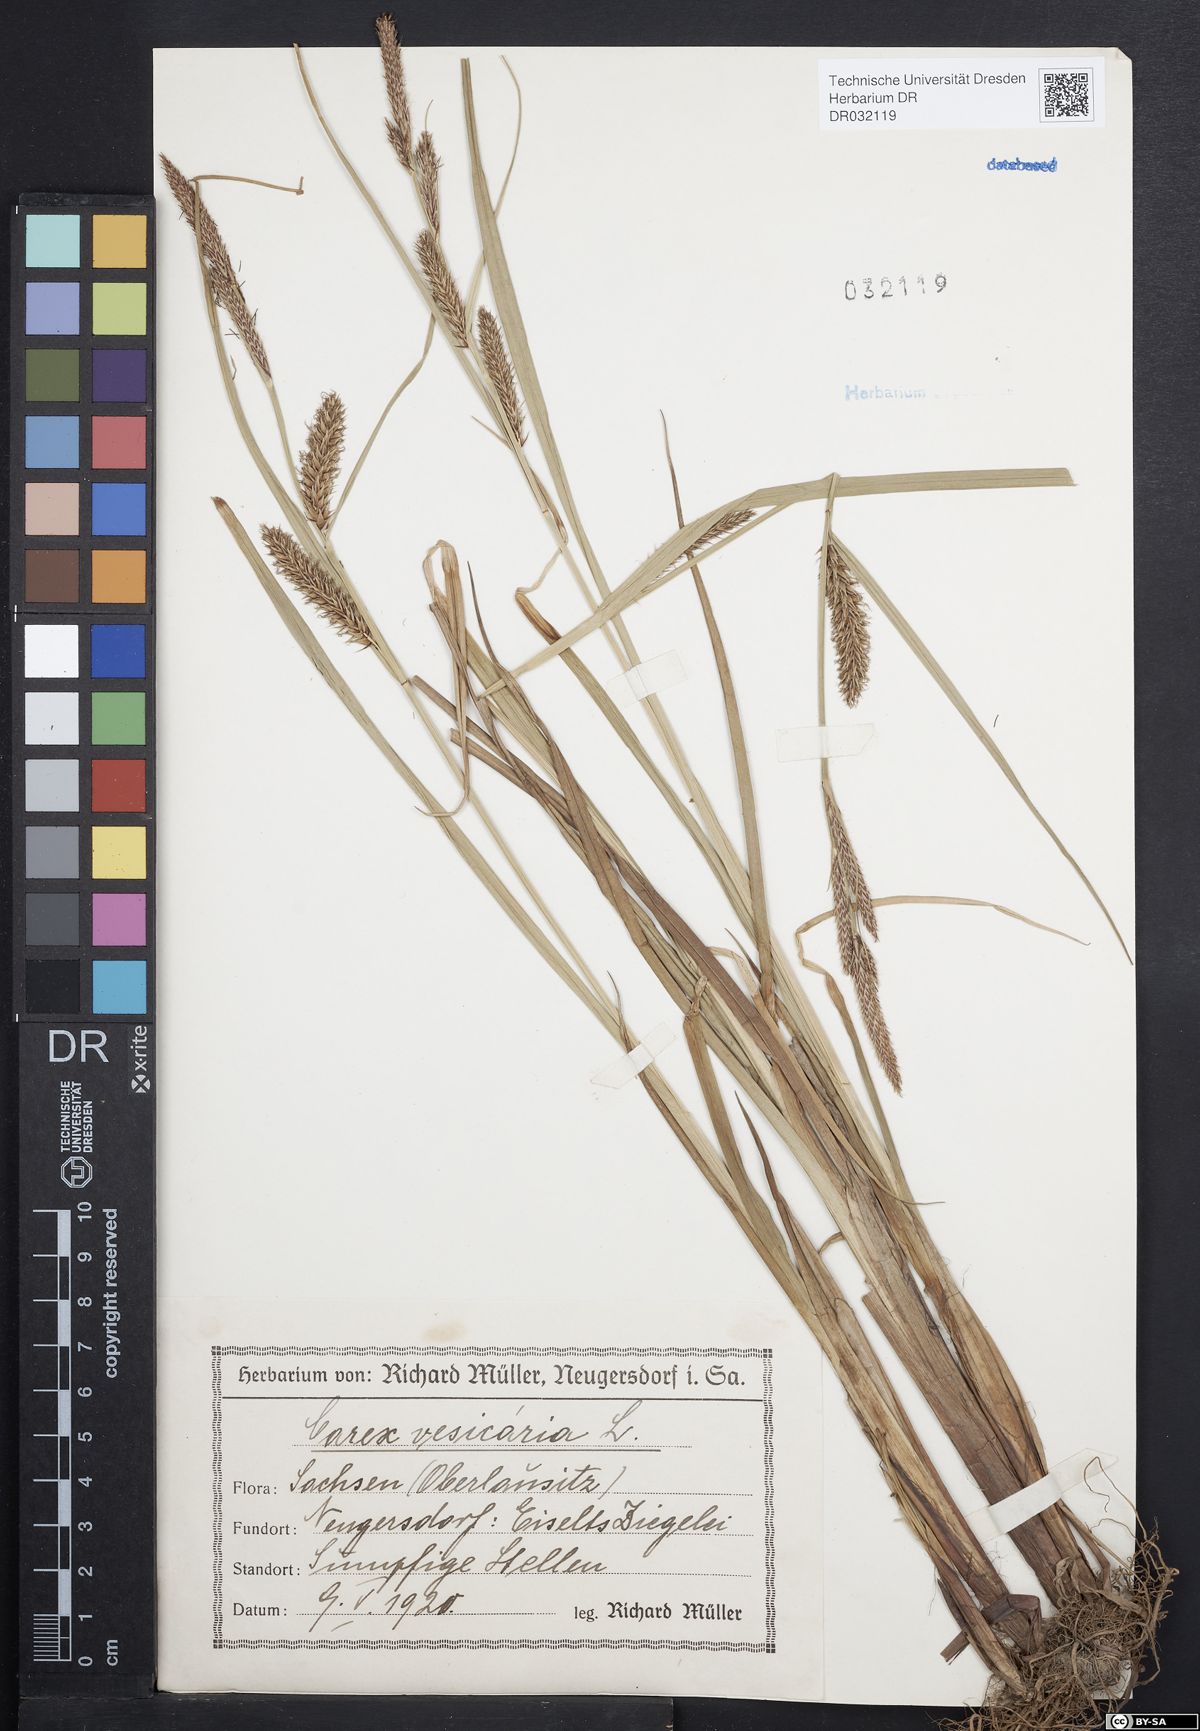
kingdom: Plantae
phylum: Tracheophyta
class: Liliopsida
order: Poales
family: Cyperaceae
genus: Carex
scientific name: Carex vesicaria
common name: Bladder-sedge
